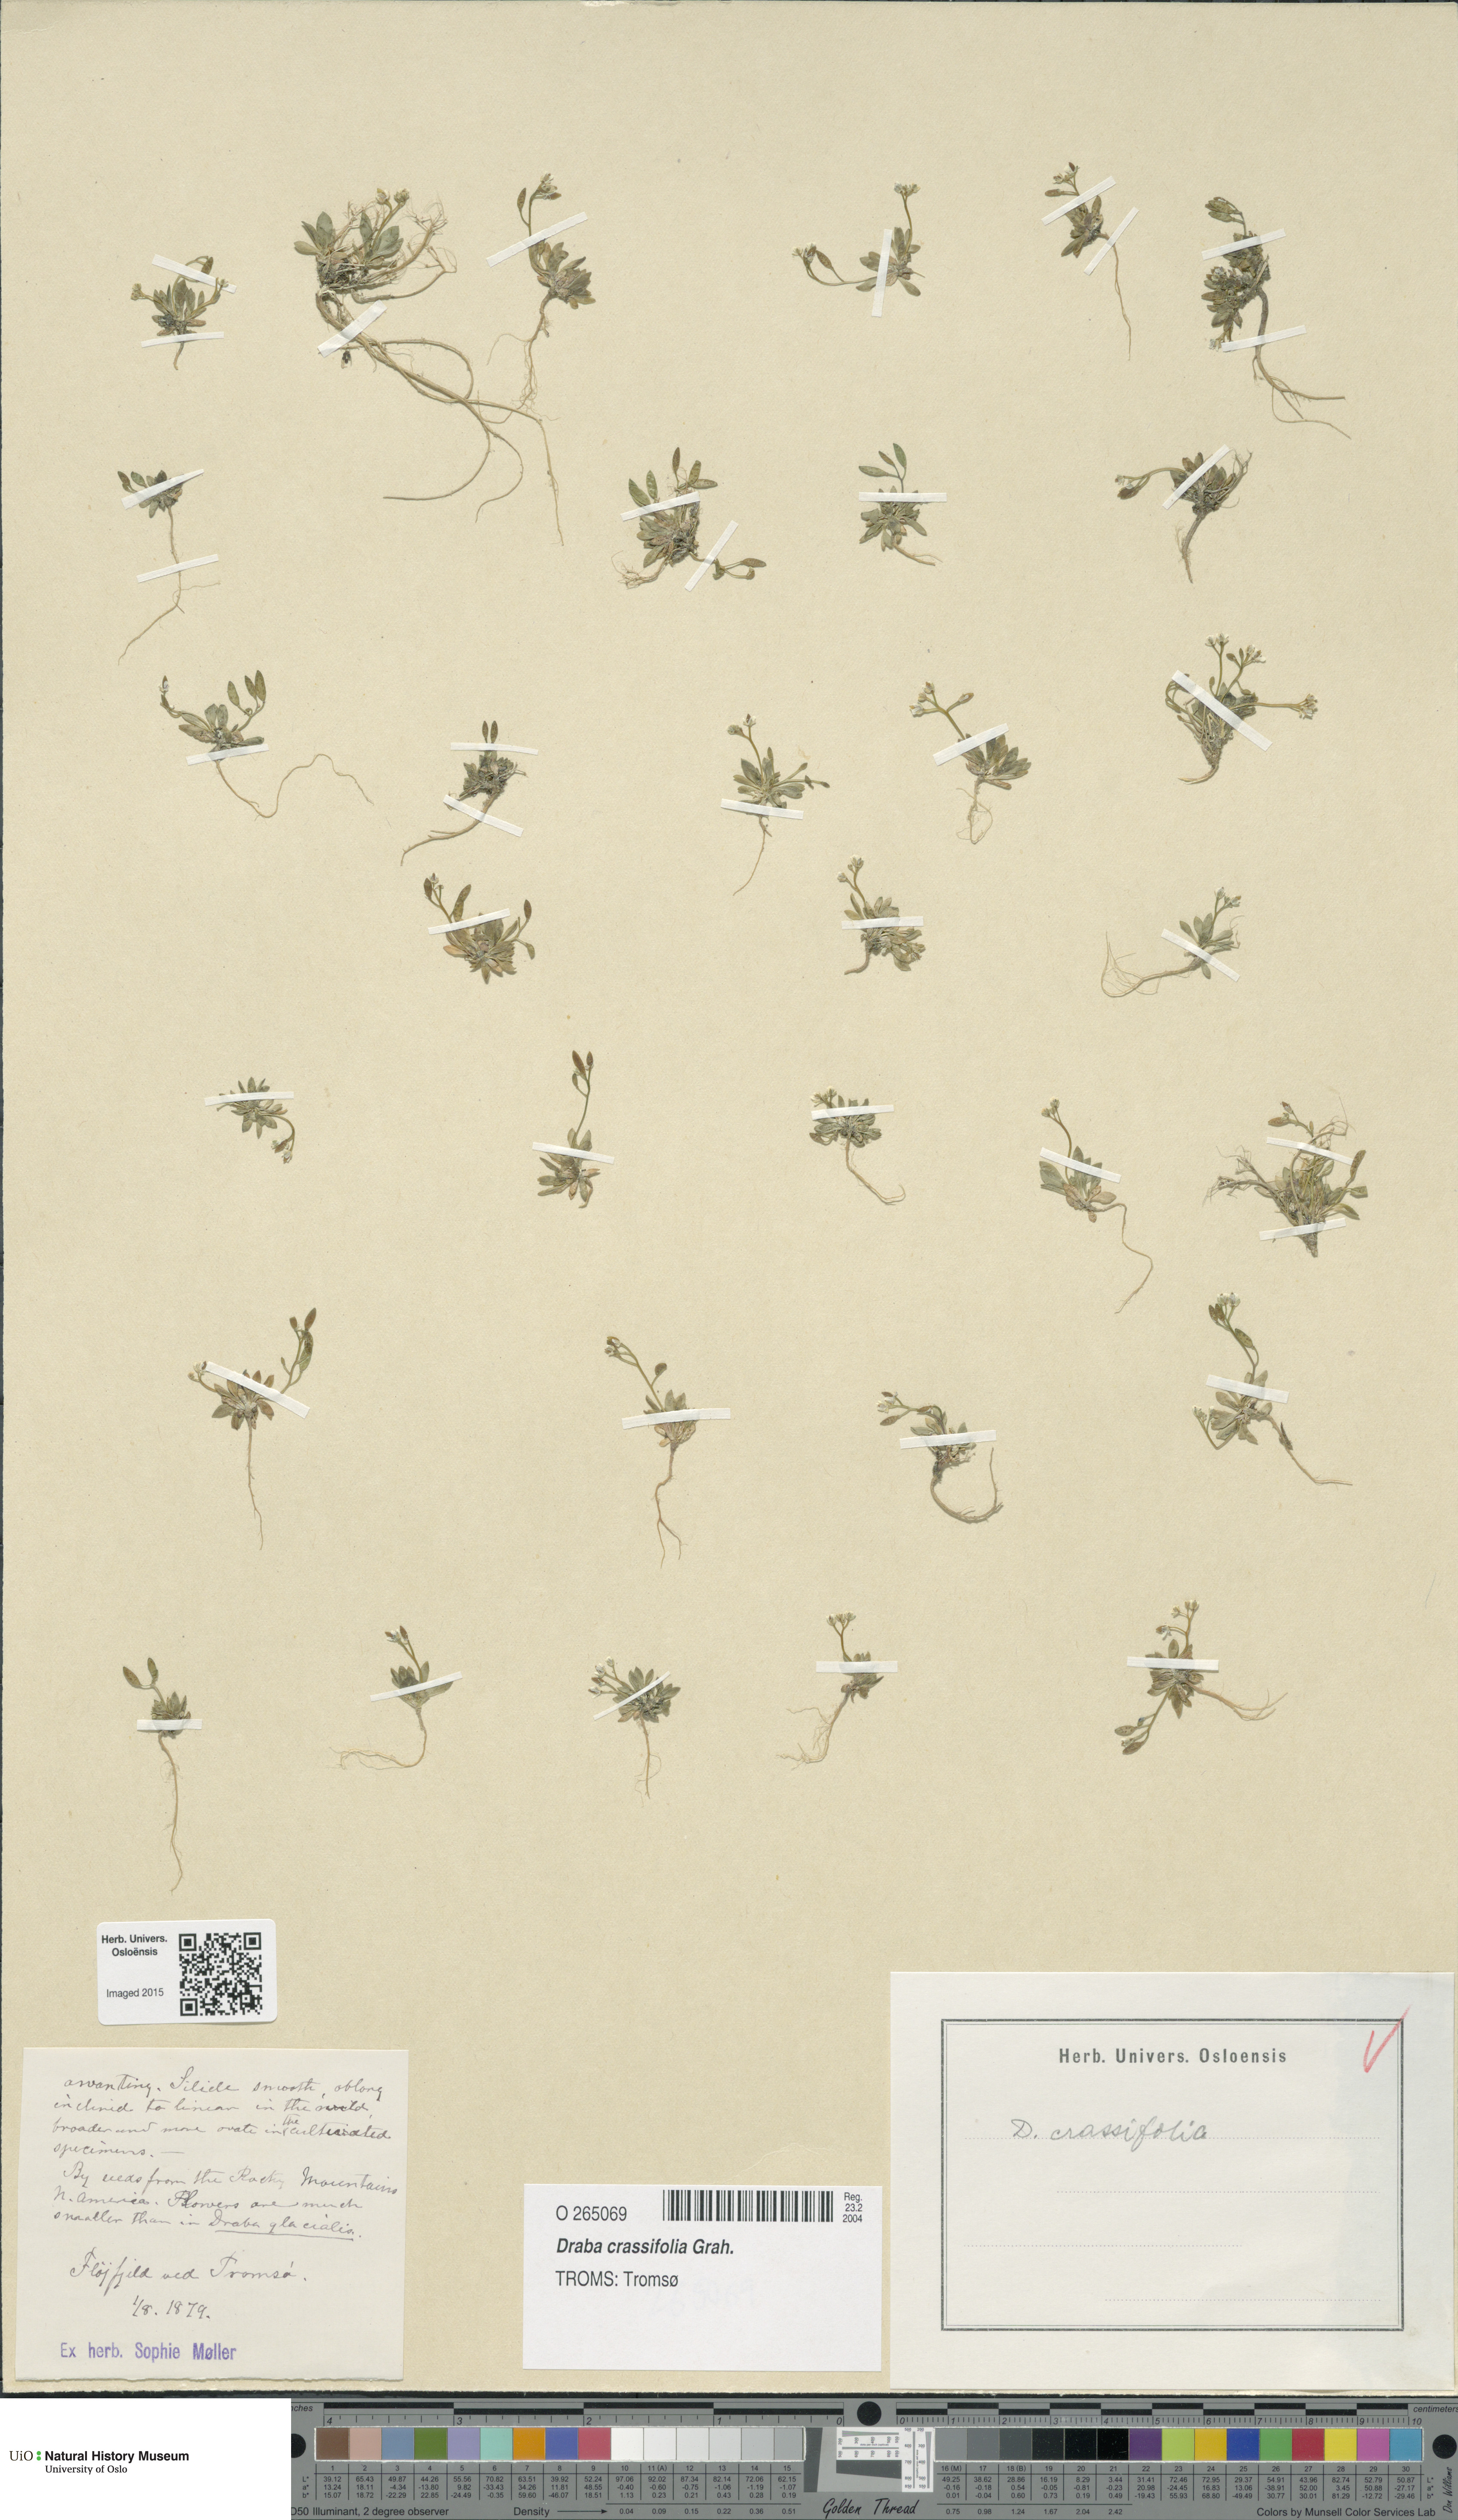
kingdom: Plantae
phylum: Tracheophyta
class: Magnoliopsida
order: Brassicales
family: Brassicaceae
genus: Draba
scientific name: Draba crassifolia
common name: Rocky mountain draba
